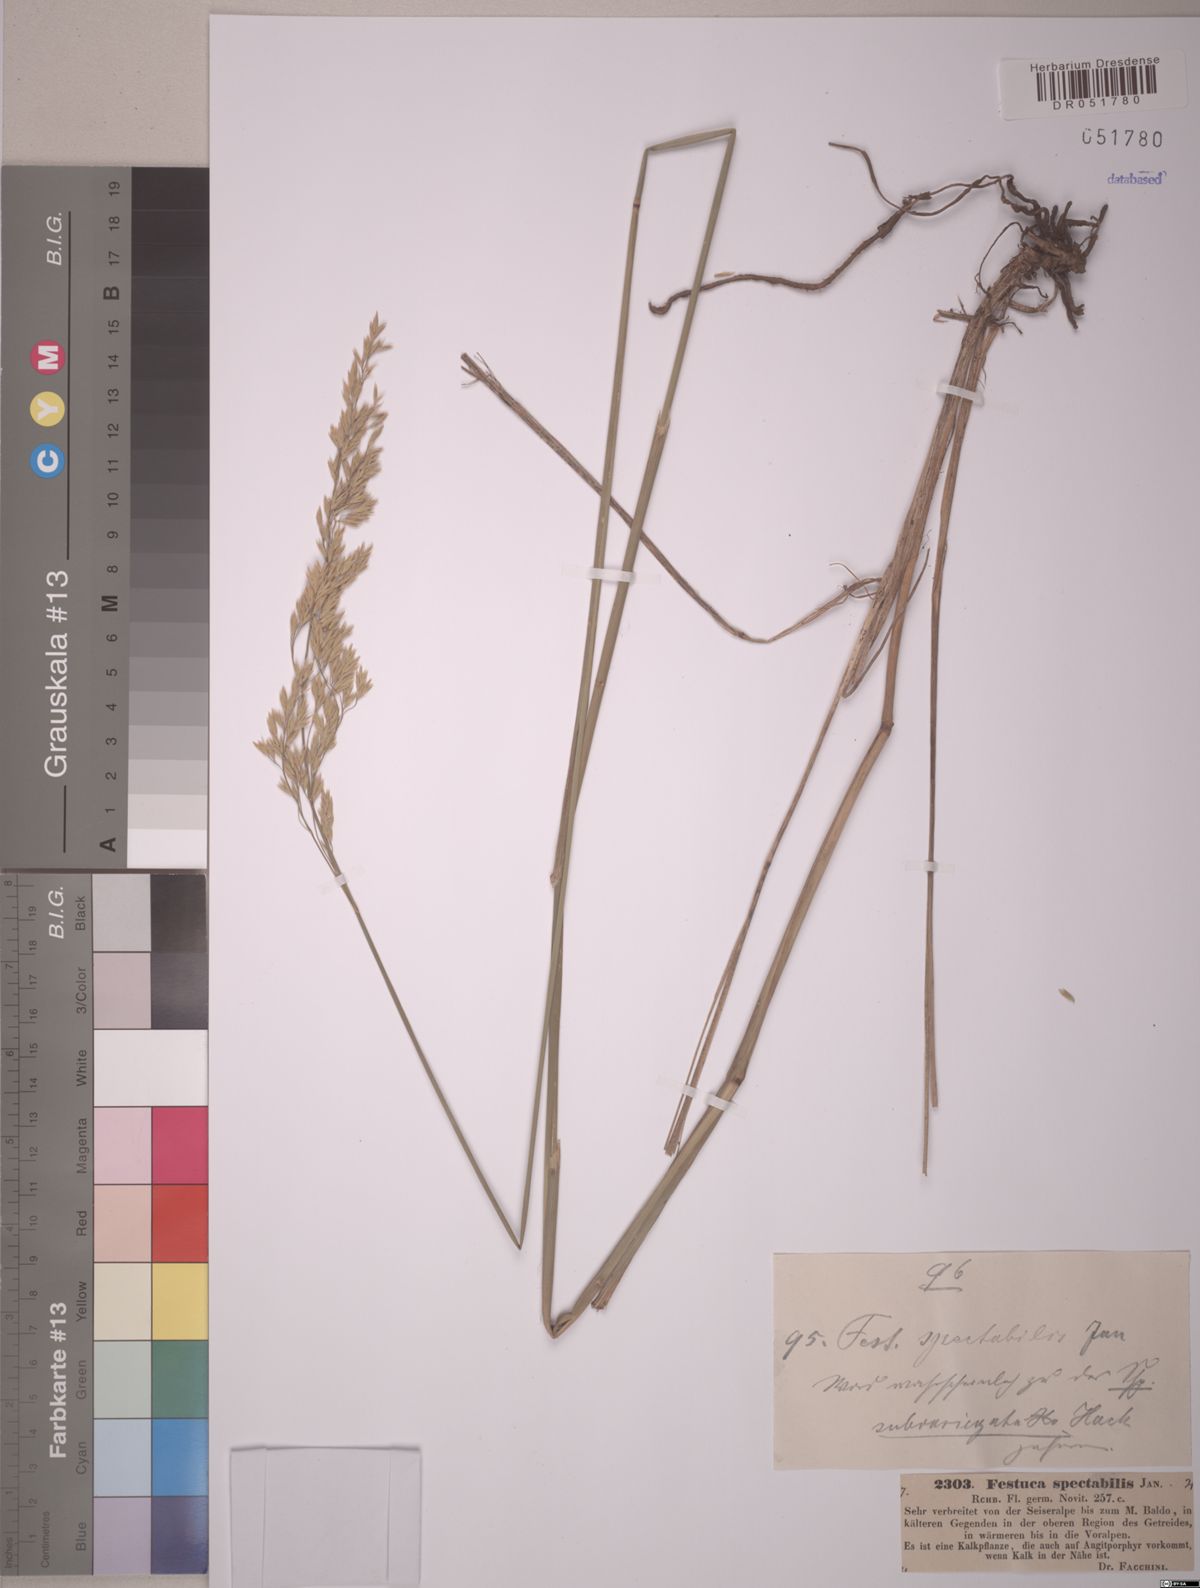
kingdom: Plantae
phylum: Tracheophyta
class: Liliopsida
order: Poales
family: Poaceae
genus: Festuca
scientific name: Festuca spectabilis
